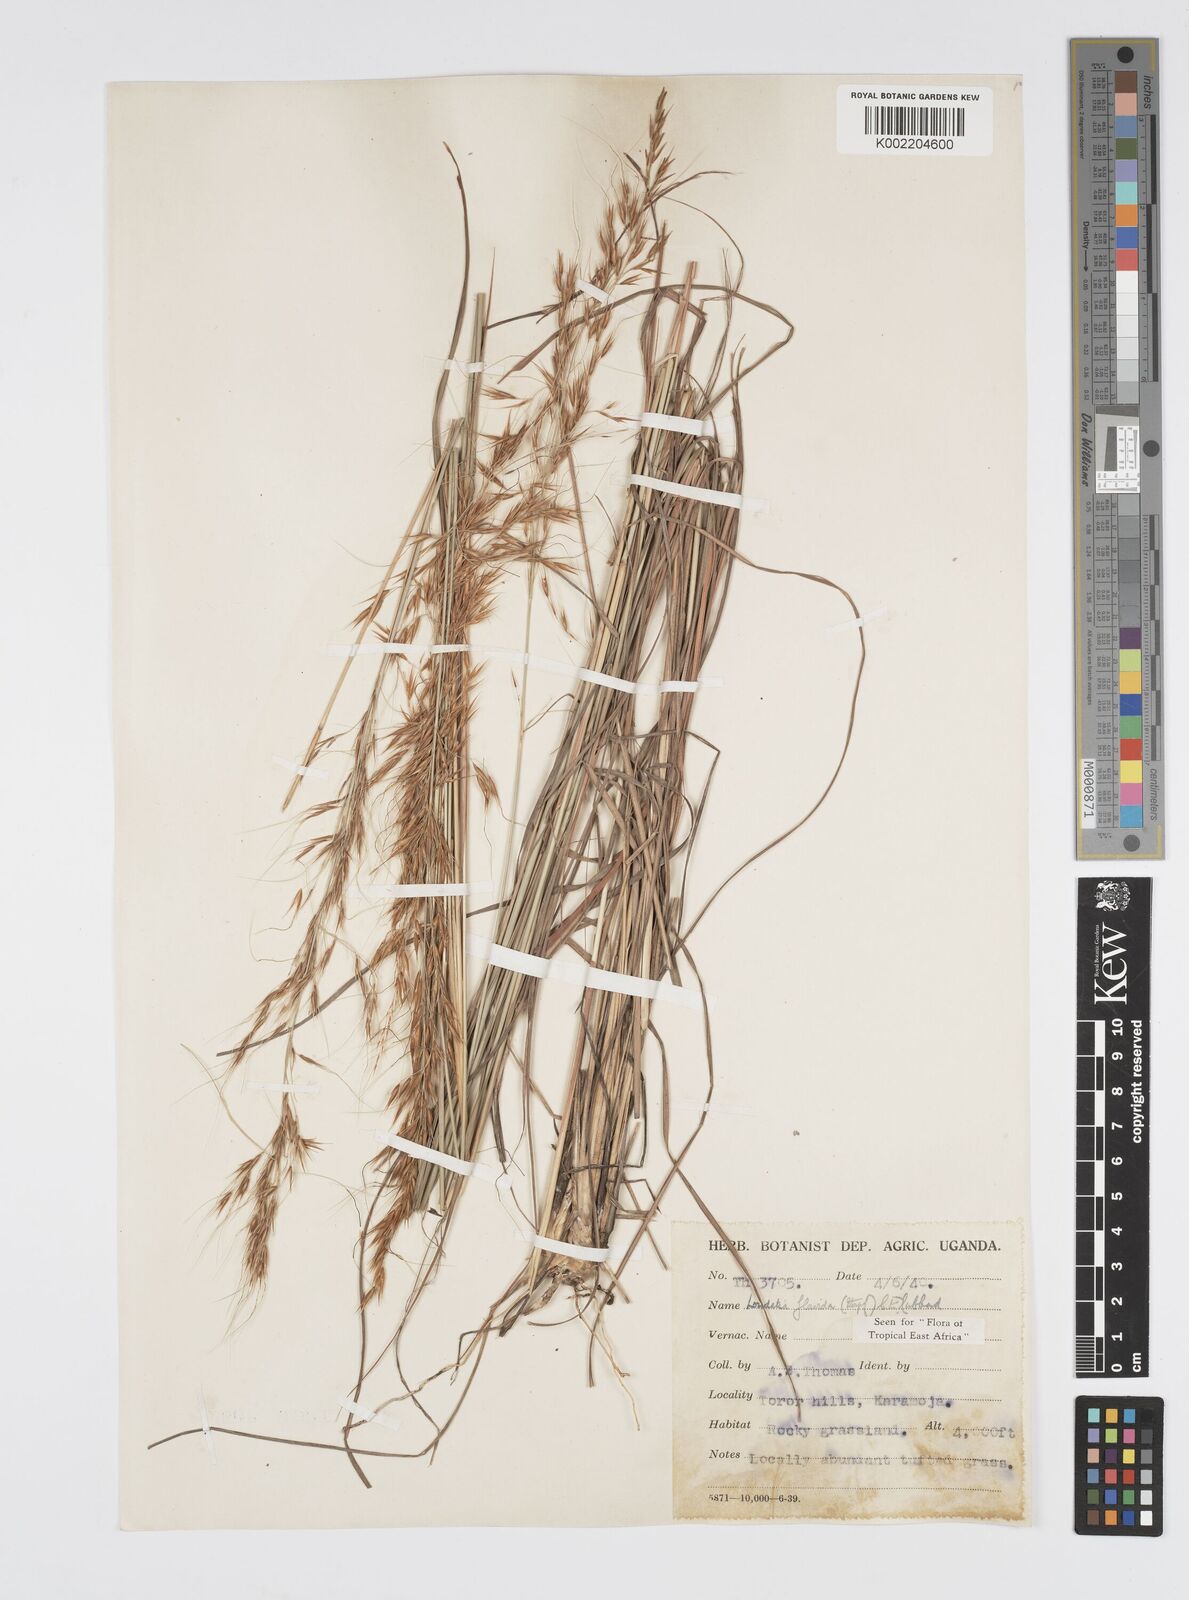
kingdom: Plantae
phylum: Tracheophyta
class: Liliopsida
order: Poales
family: Poaceae
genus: Loudetia
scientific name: Loudetia flavida
